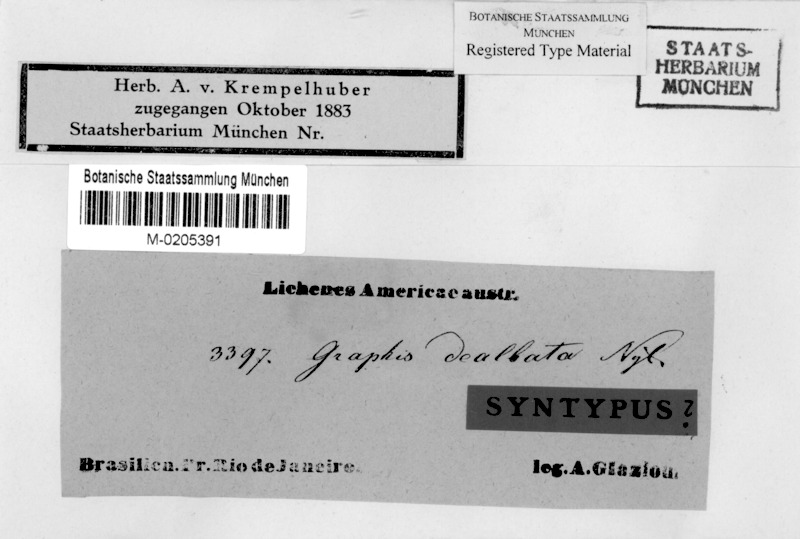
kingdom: Fungi
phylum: Ascomycota
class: Lecanoromycetes
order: Ostropales
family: Graphidaceae
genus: Allographa
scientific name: Allographa dealbata
